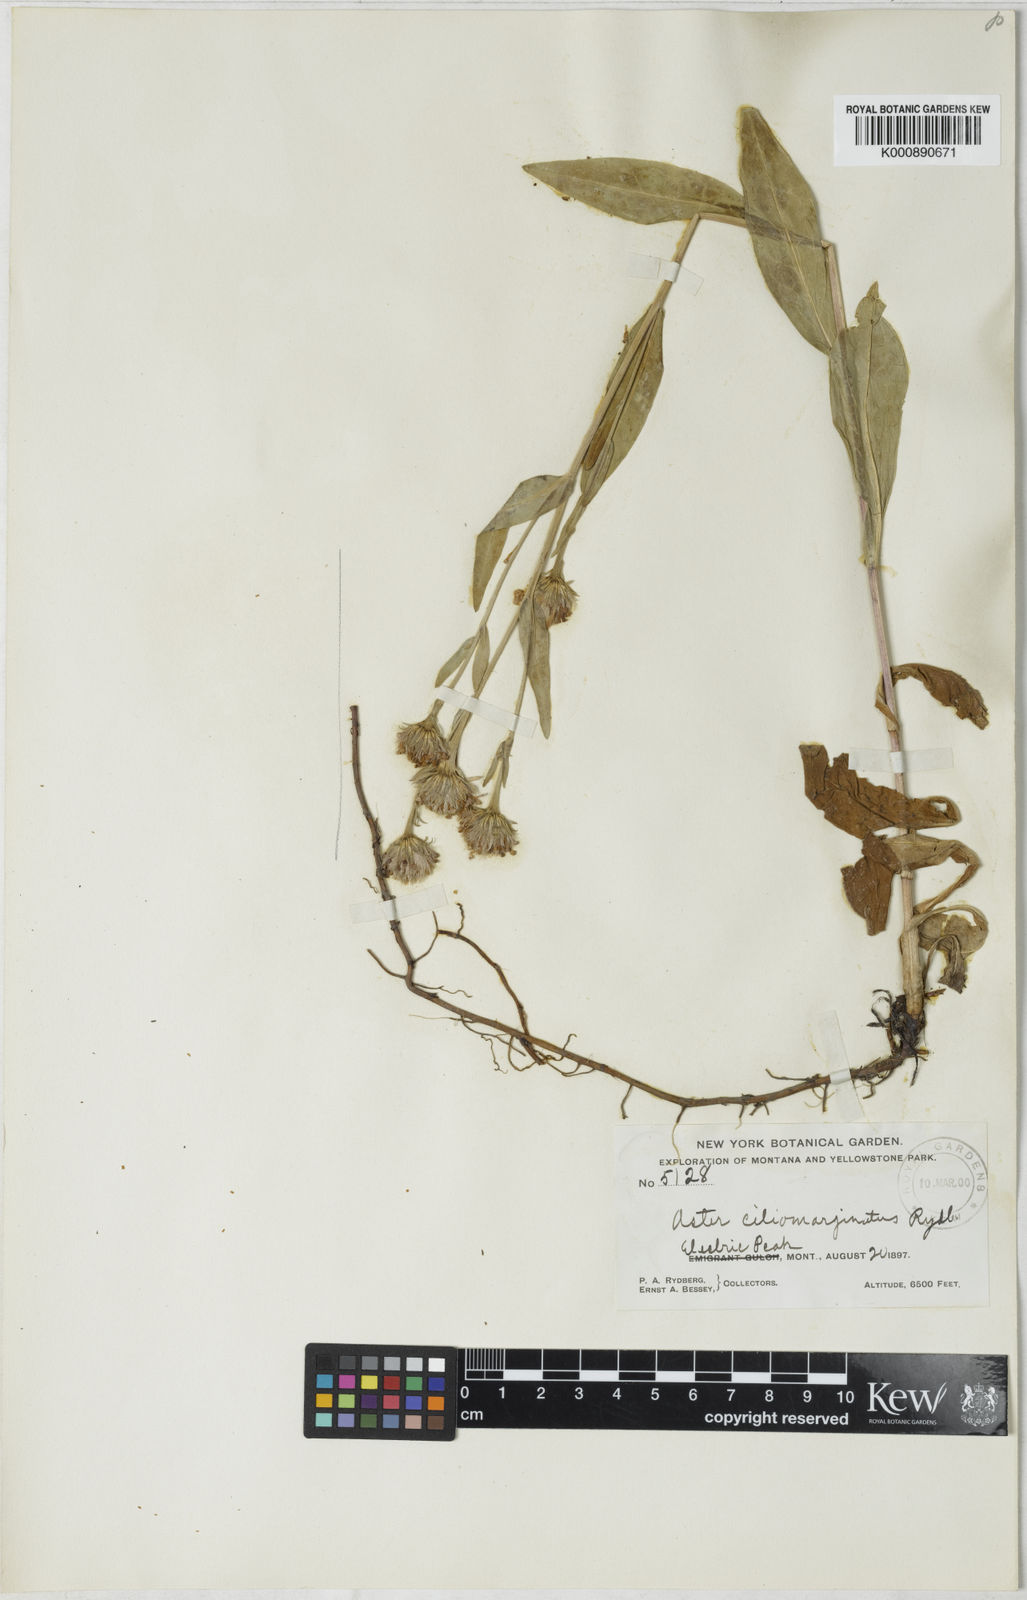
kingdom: Plantae
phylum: Tracheophyta
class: Magnoliopsida
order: Asterales
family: Asteraceae
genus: Aster
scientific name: Aster ciliomarginatus
